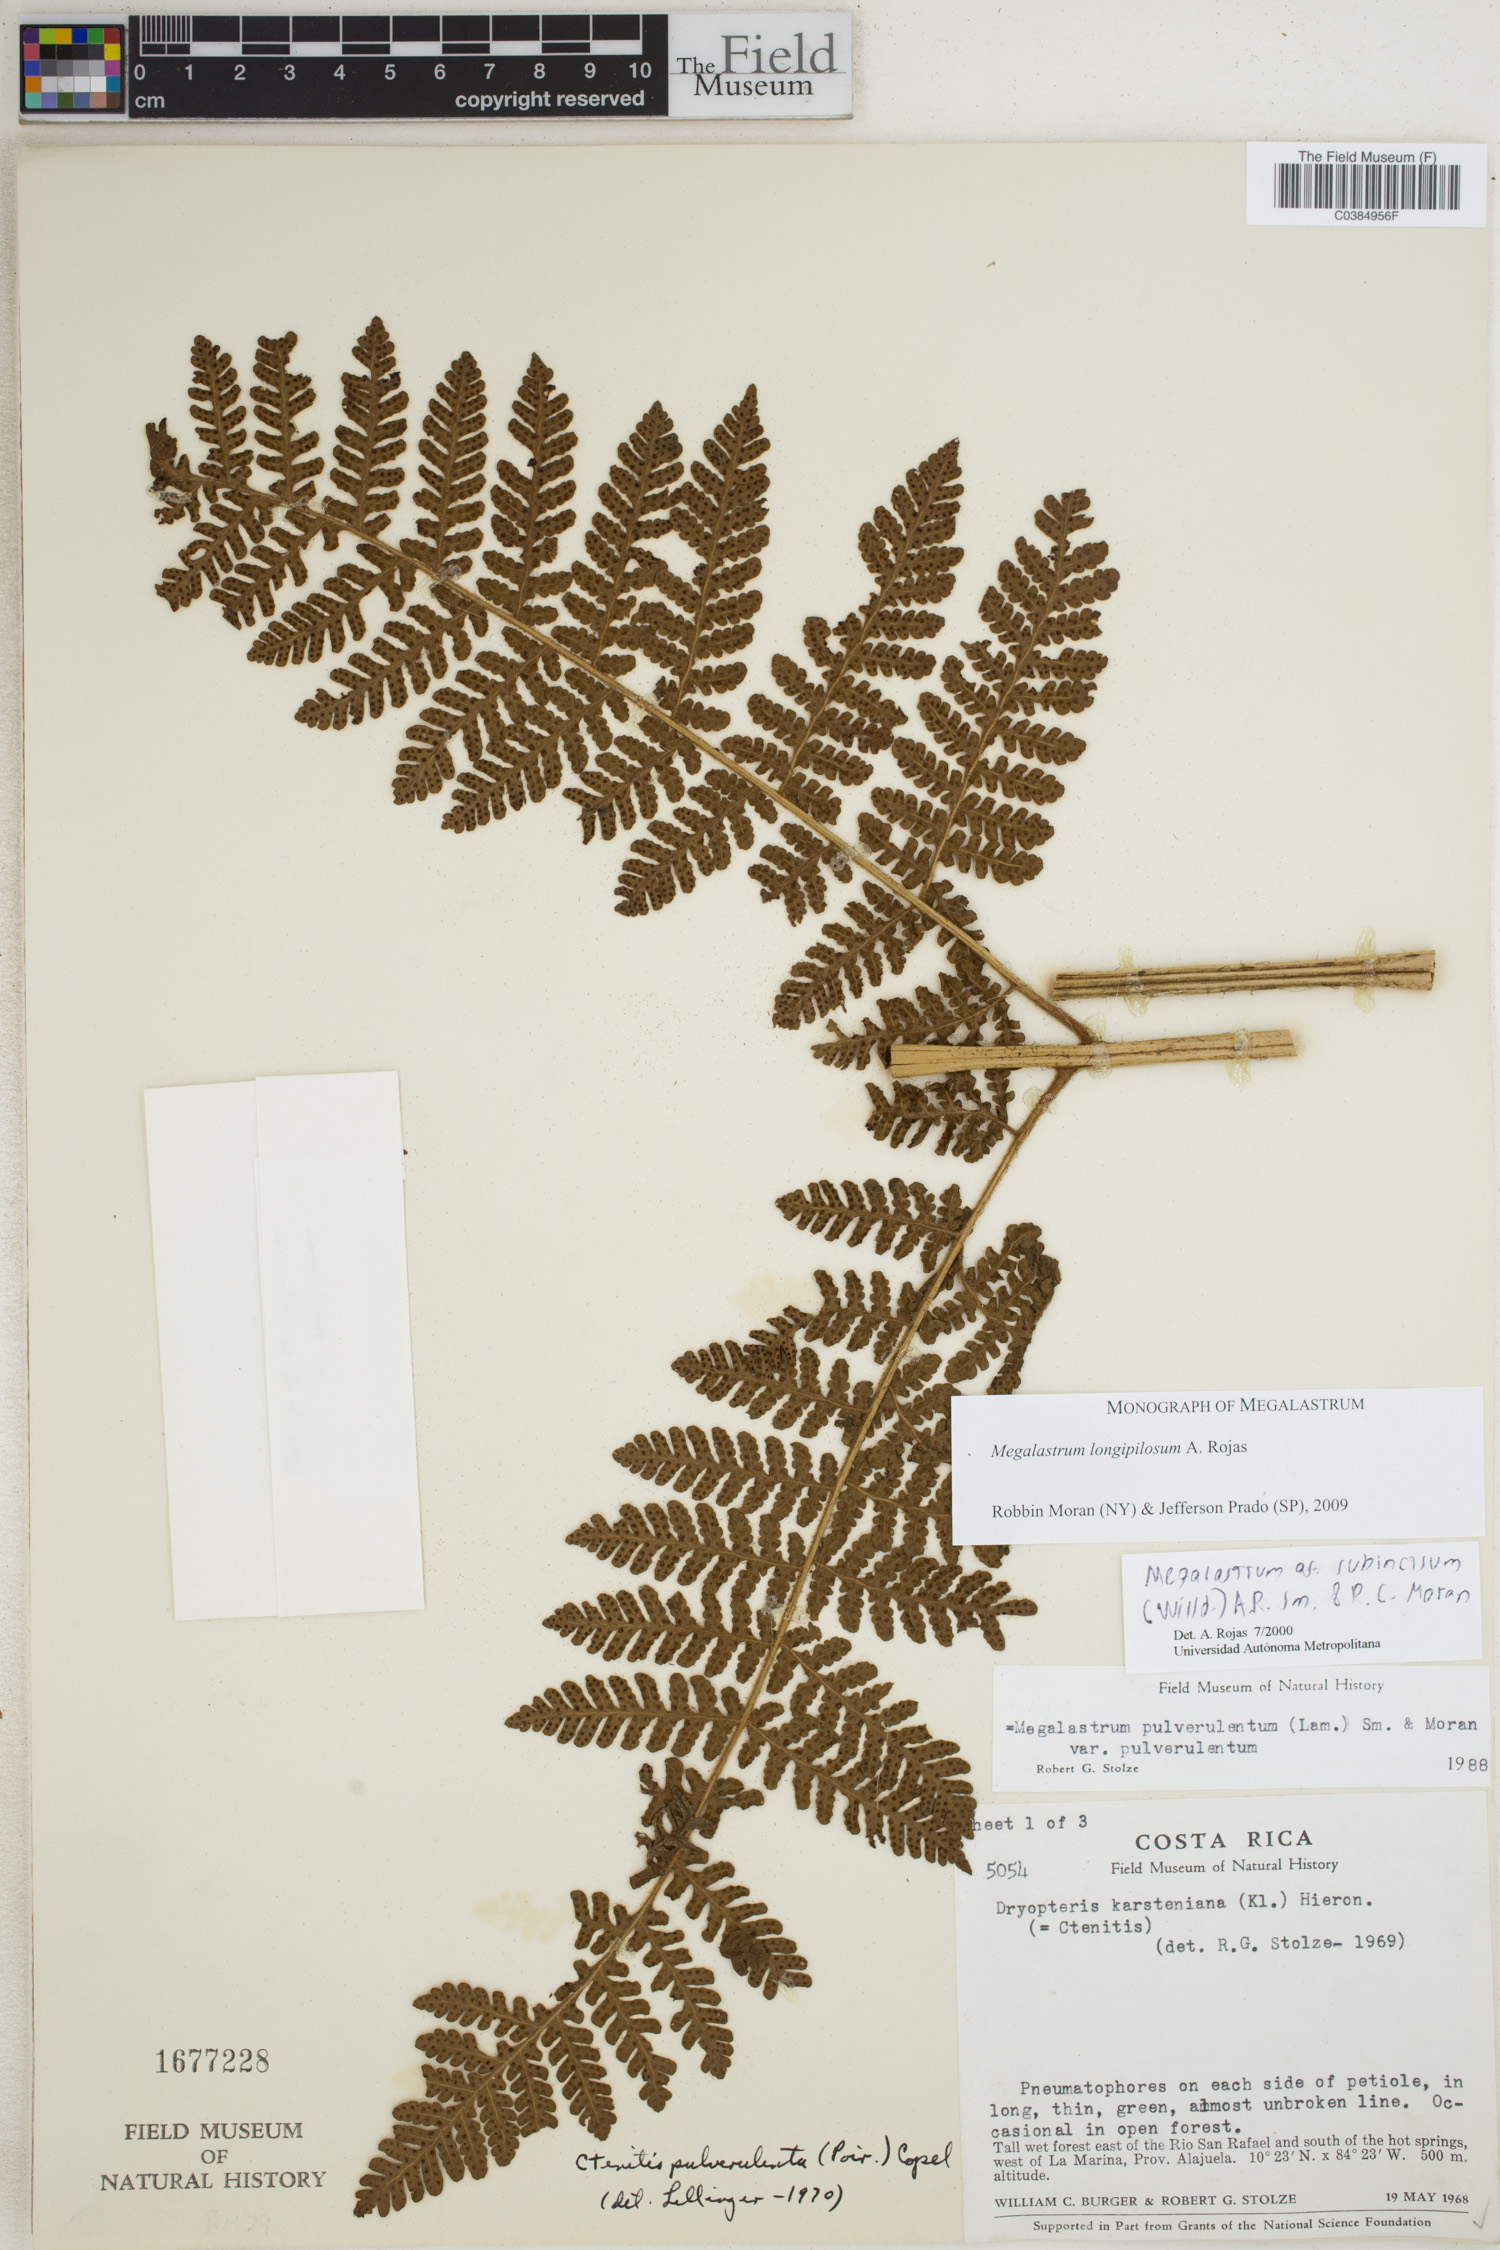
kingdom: Plantae
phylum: Tracheophyta
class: Polypodiopsida
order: Polypodiales
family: Dryopteridaceae
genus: Megalastrum
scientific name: Megalastrum longipilosum
